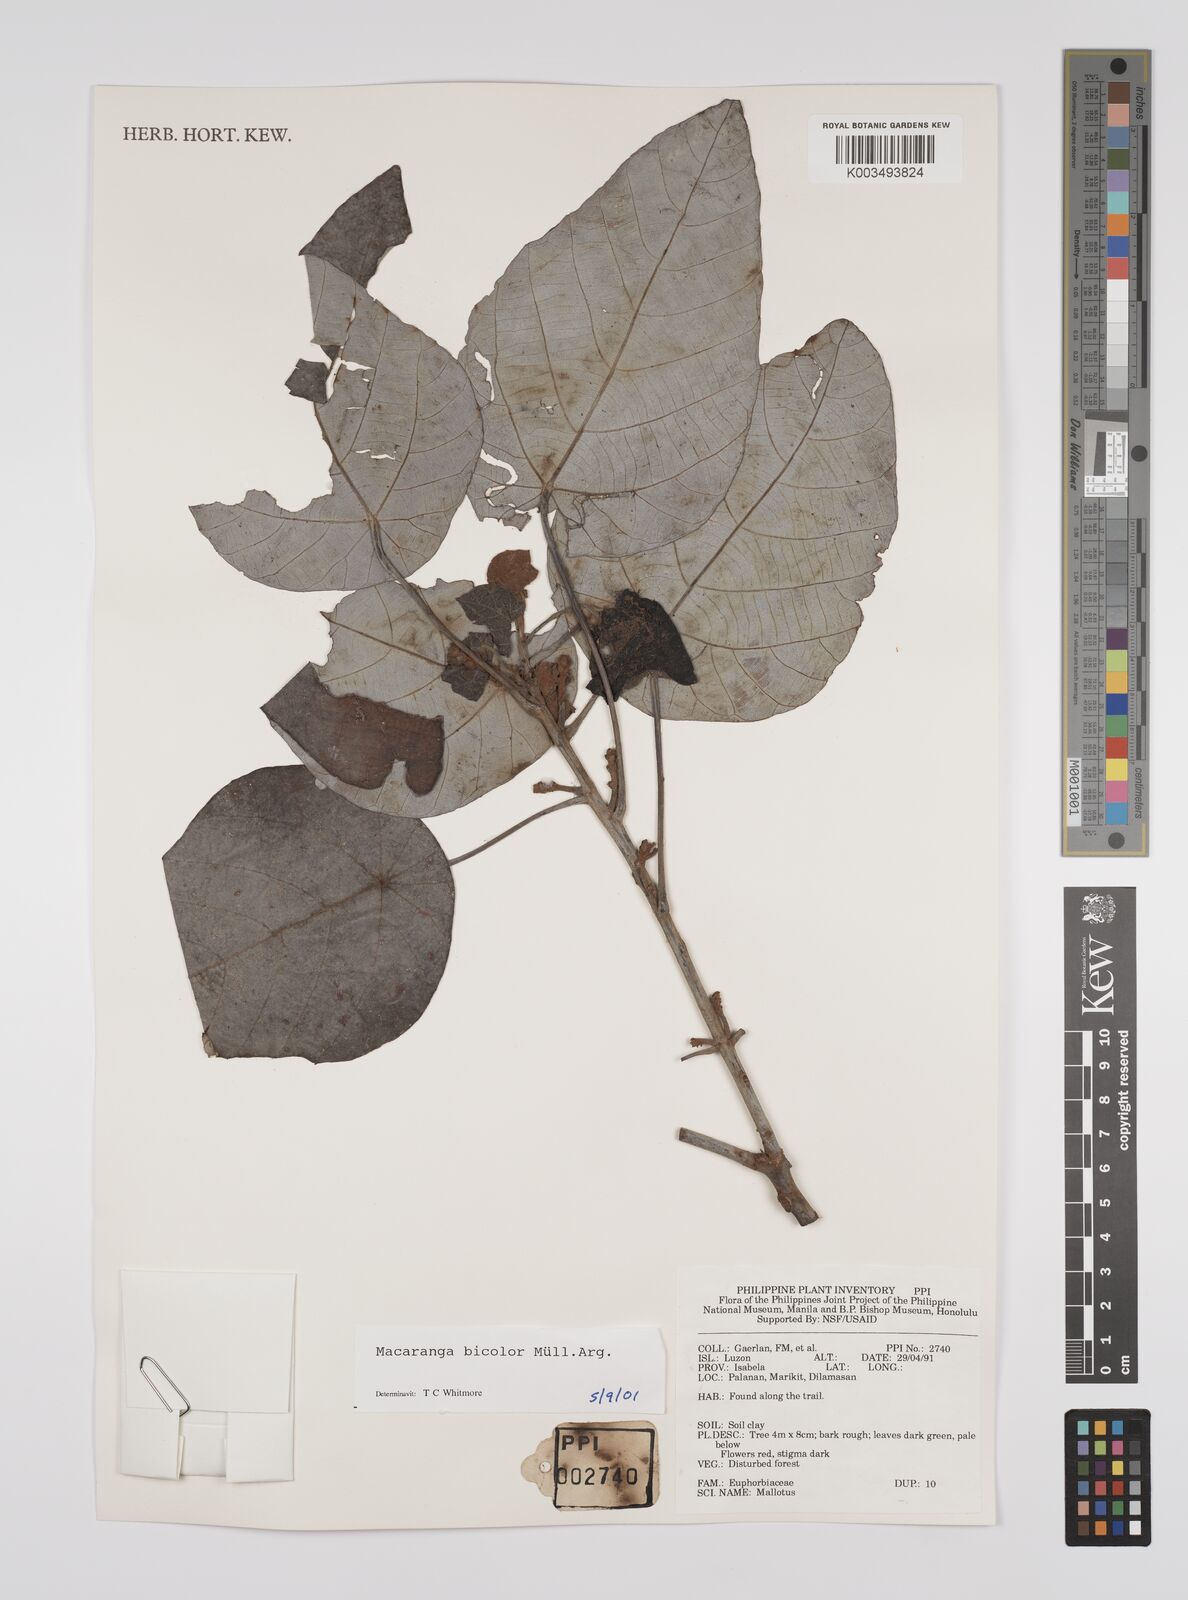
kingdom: Plantae
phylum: Tracheophyta
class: Magnoliopsida
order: Malpighiales
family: Euphorbiaceae
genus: Macaranga
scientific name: Macaranga bicolor
